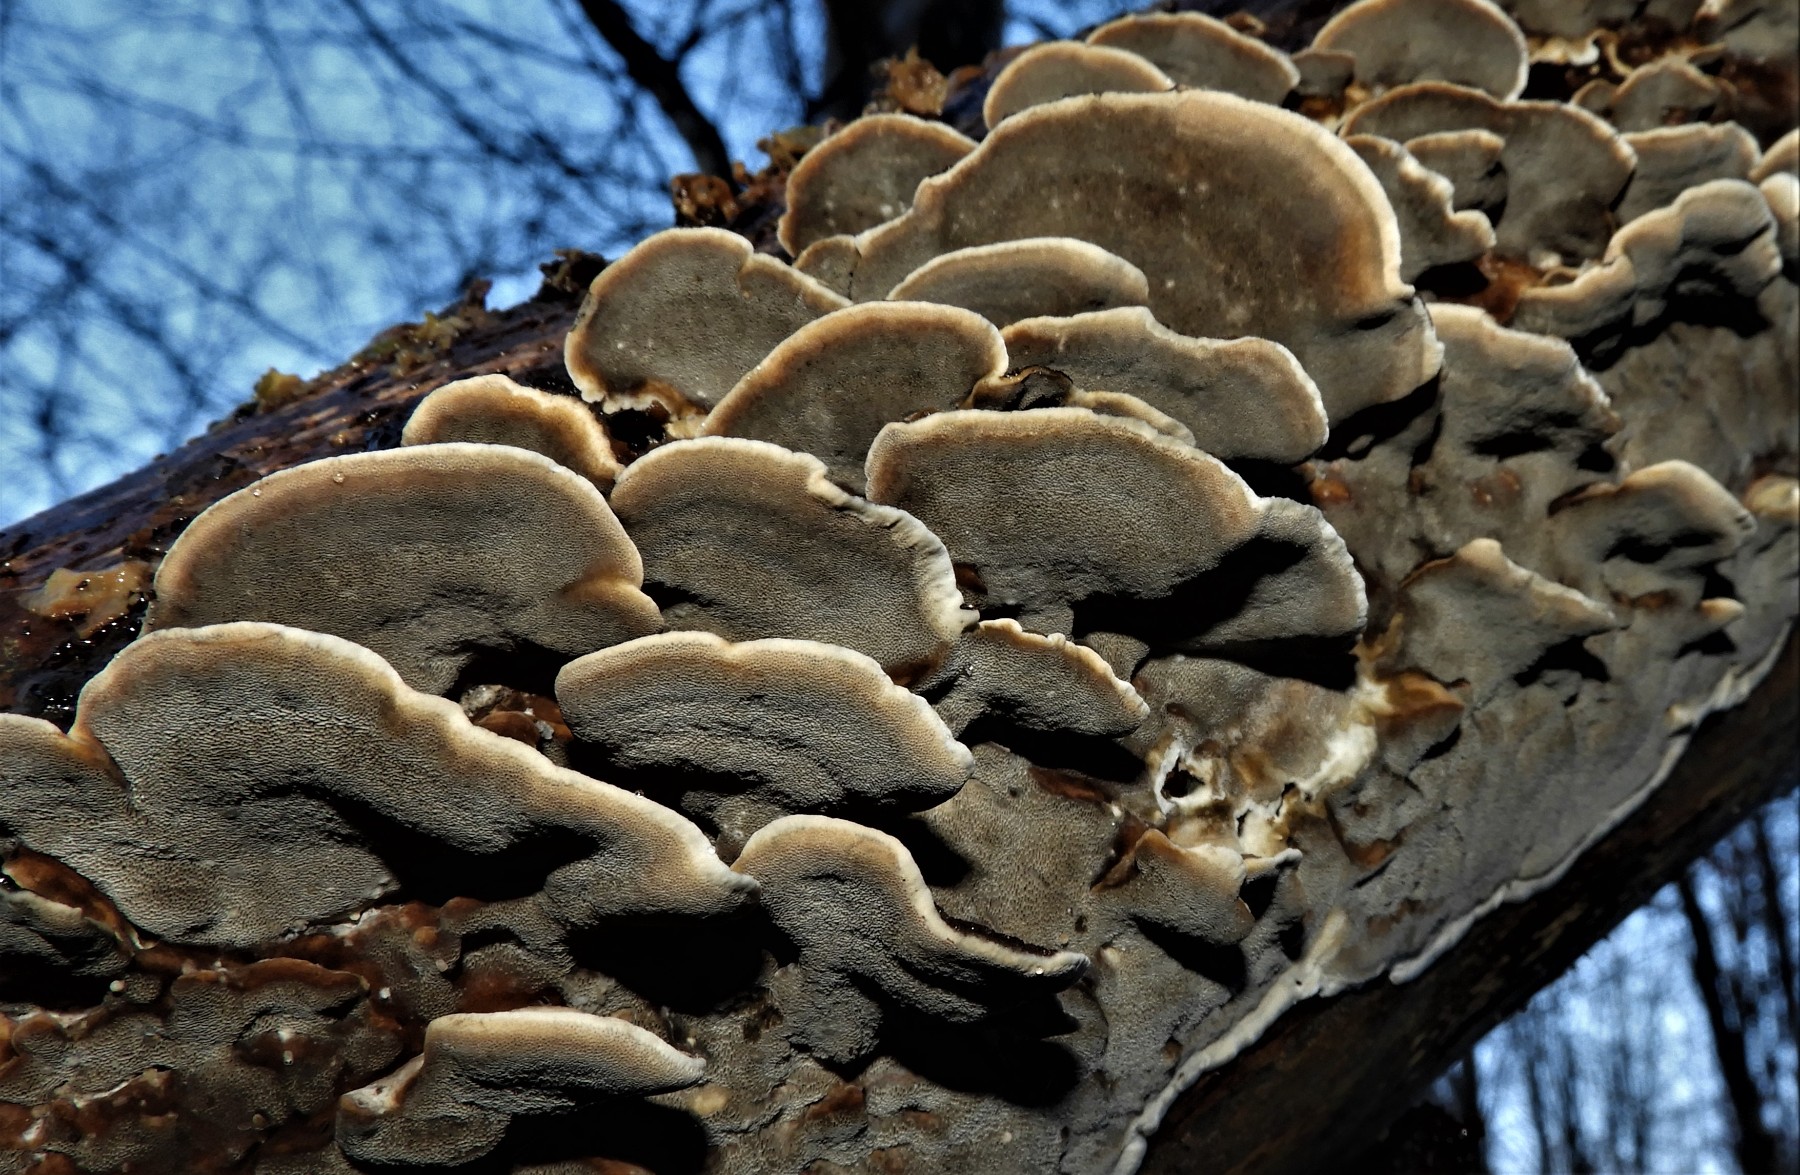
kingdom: Fungi
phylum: Basidiomycota
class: Agaricomycetes
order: Polyporales
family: Phanerochaetaceae
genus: Bjerkandera
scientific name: Bjerkandera adusta
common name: sveden sodporesvamp
